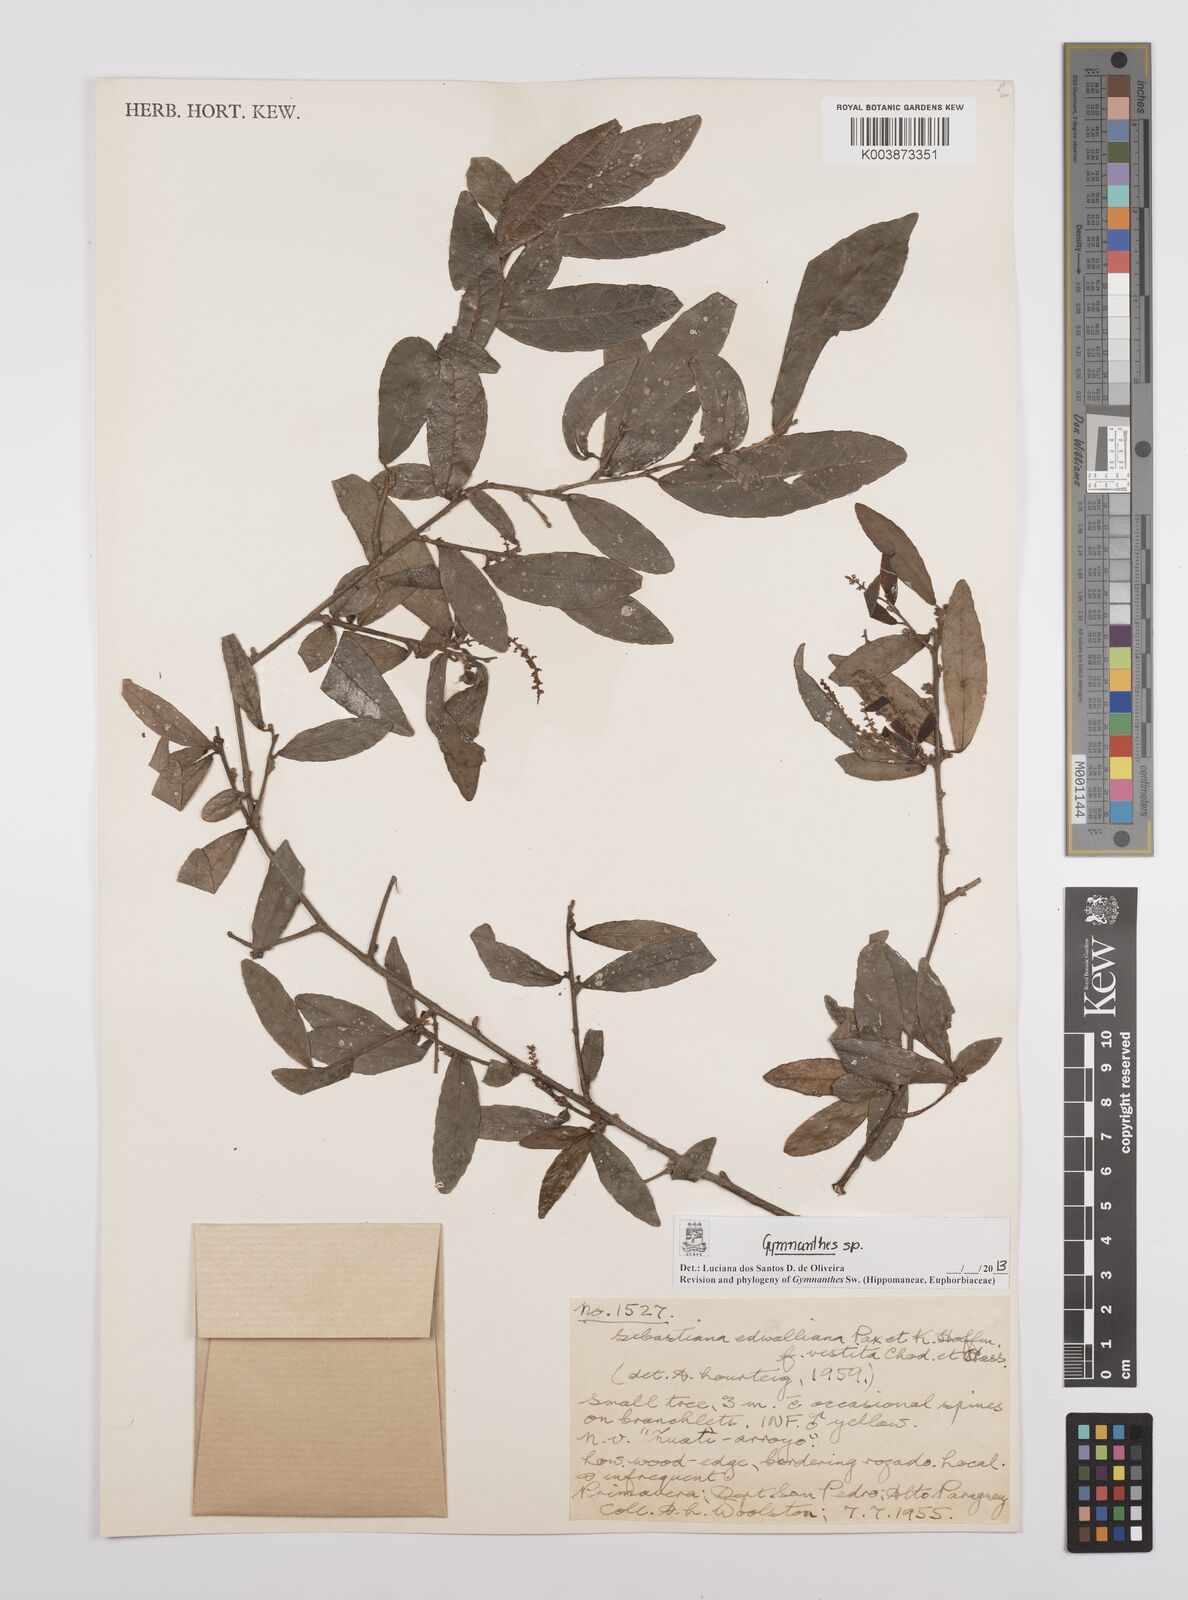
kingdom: Plantae
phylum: Tracheophyta
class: Magnoliopsida
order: Malpighiales
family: Euphorbiaceae
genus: Gymnanthes
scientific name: Gymnanthes
